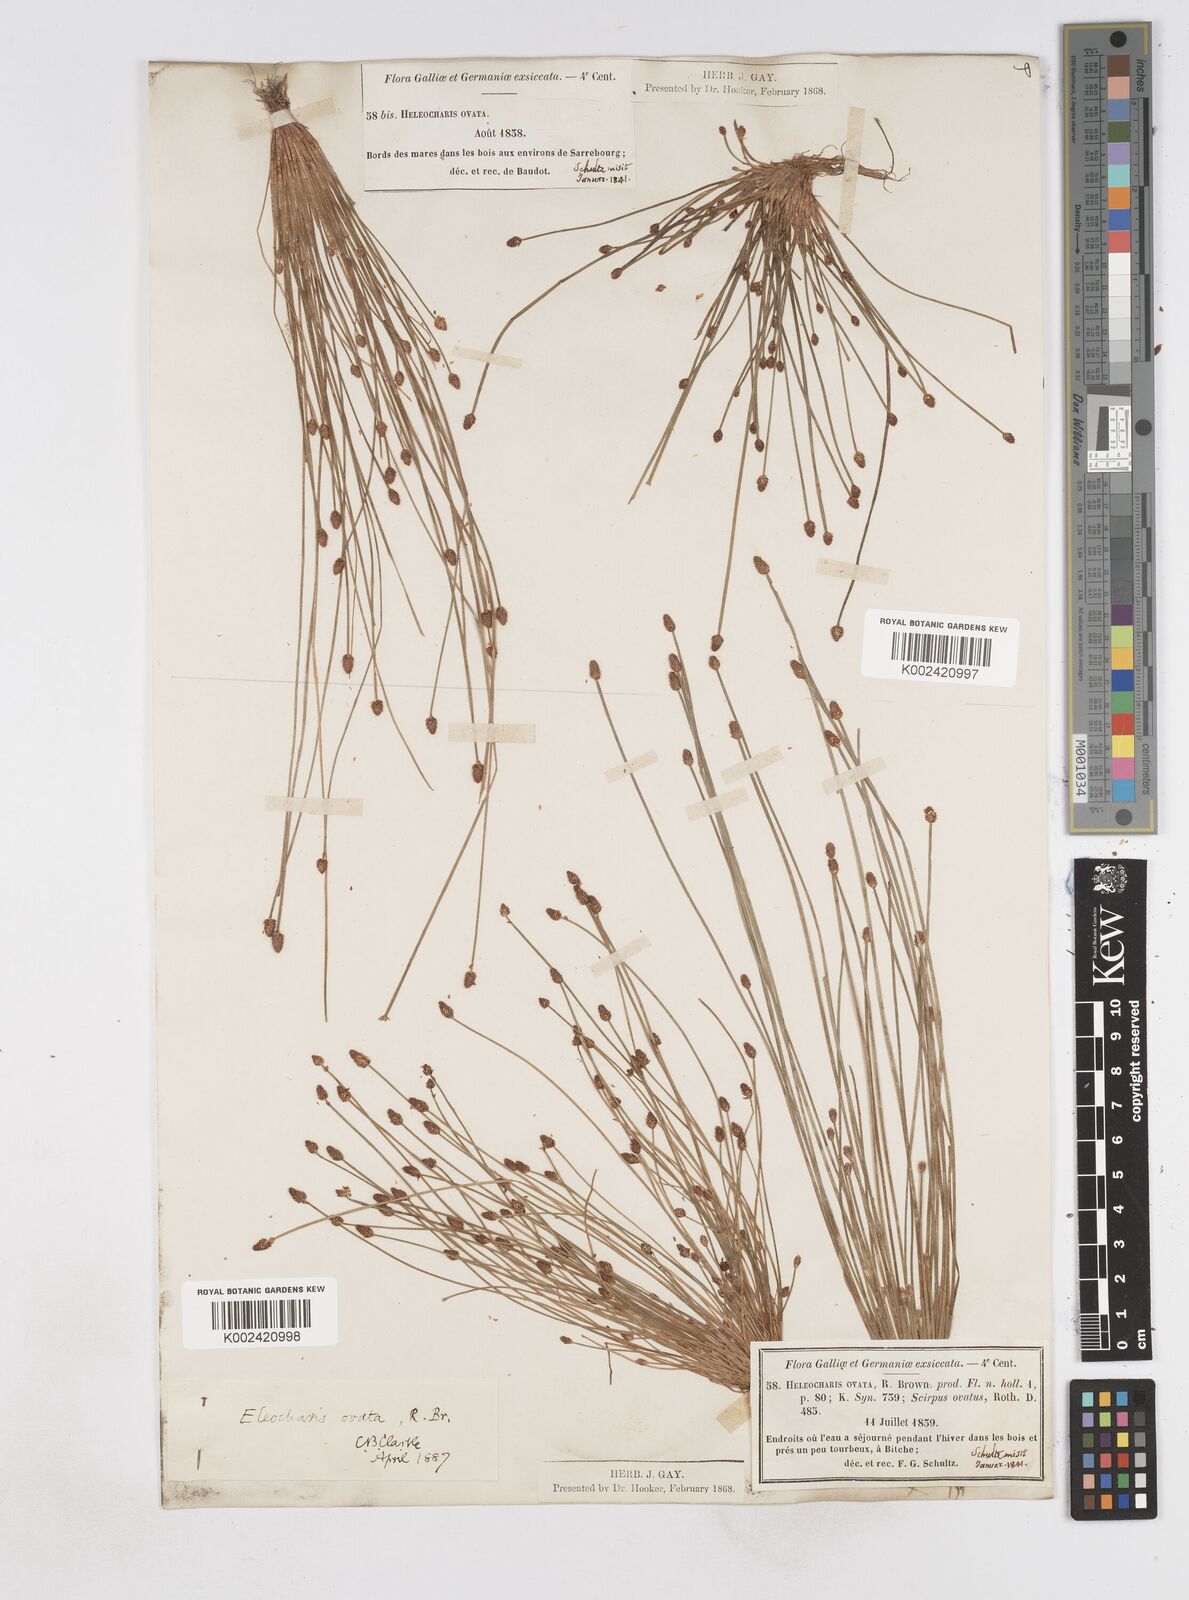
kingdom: Plantae
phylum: Tracheophyta
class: Liliopsida
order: Poales
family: Cyperaceae
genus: Eleocharis
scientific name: Eleocharis ovata
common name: Oval spike-rush
